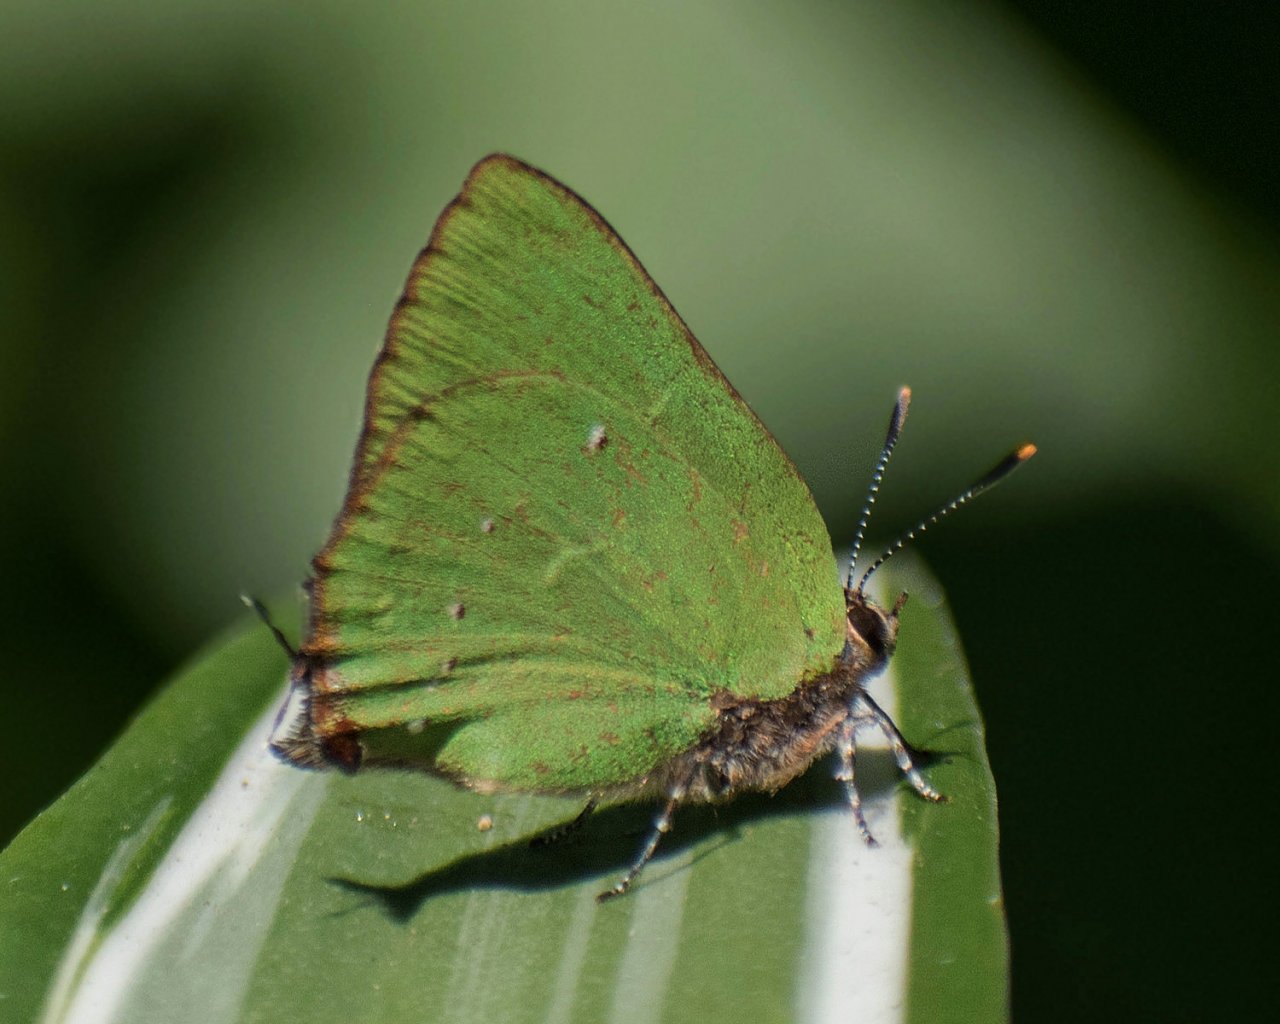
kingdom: Animalia
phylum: Arthropoda
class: Insecta
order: Lepidoptera
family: Lycaenidae
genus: Thecla
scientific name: Thecla herodotus
